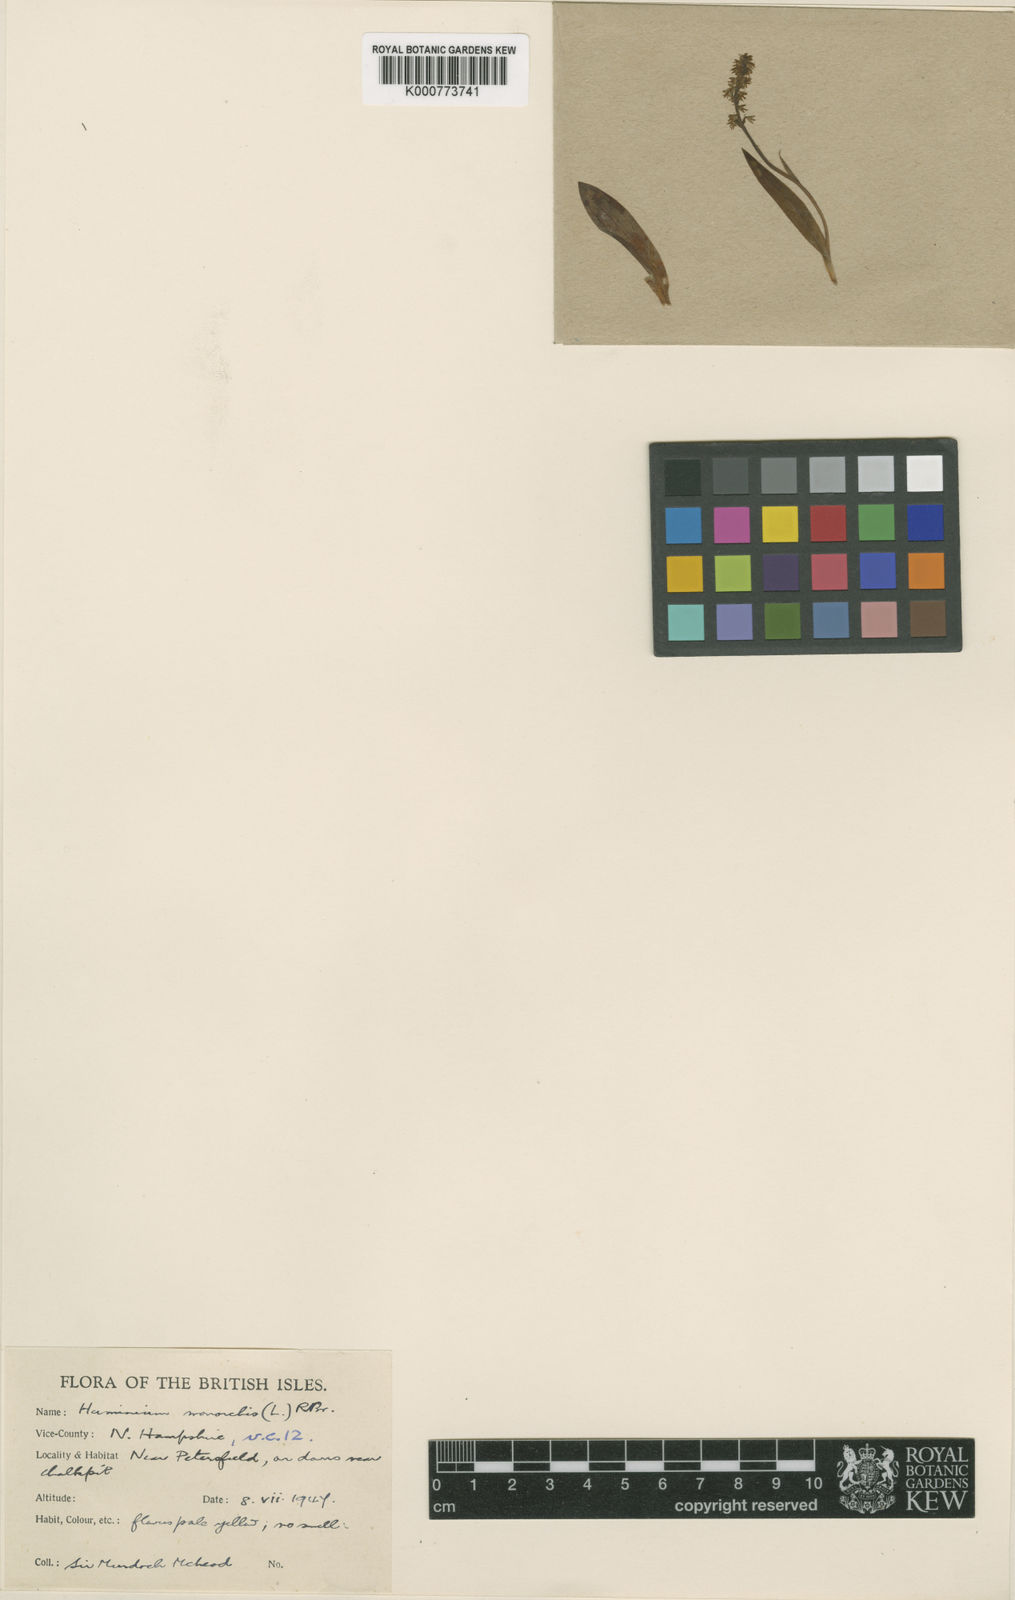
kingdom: Plantae
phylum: Tracheophyta
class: Liliopsida
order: Asparagales
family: Orchidaceae
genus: Herminium
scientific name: Herminium monorchis
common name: Musk orchid
